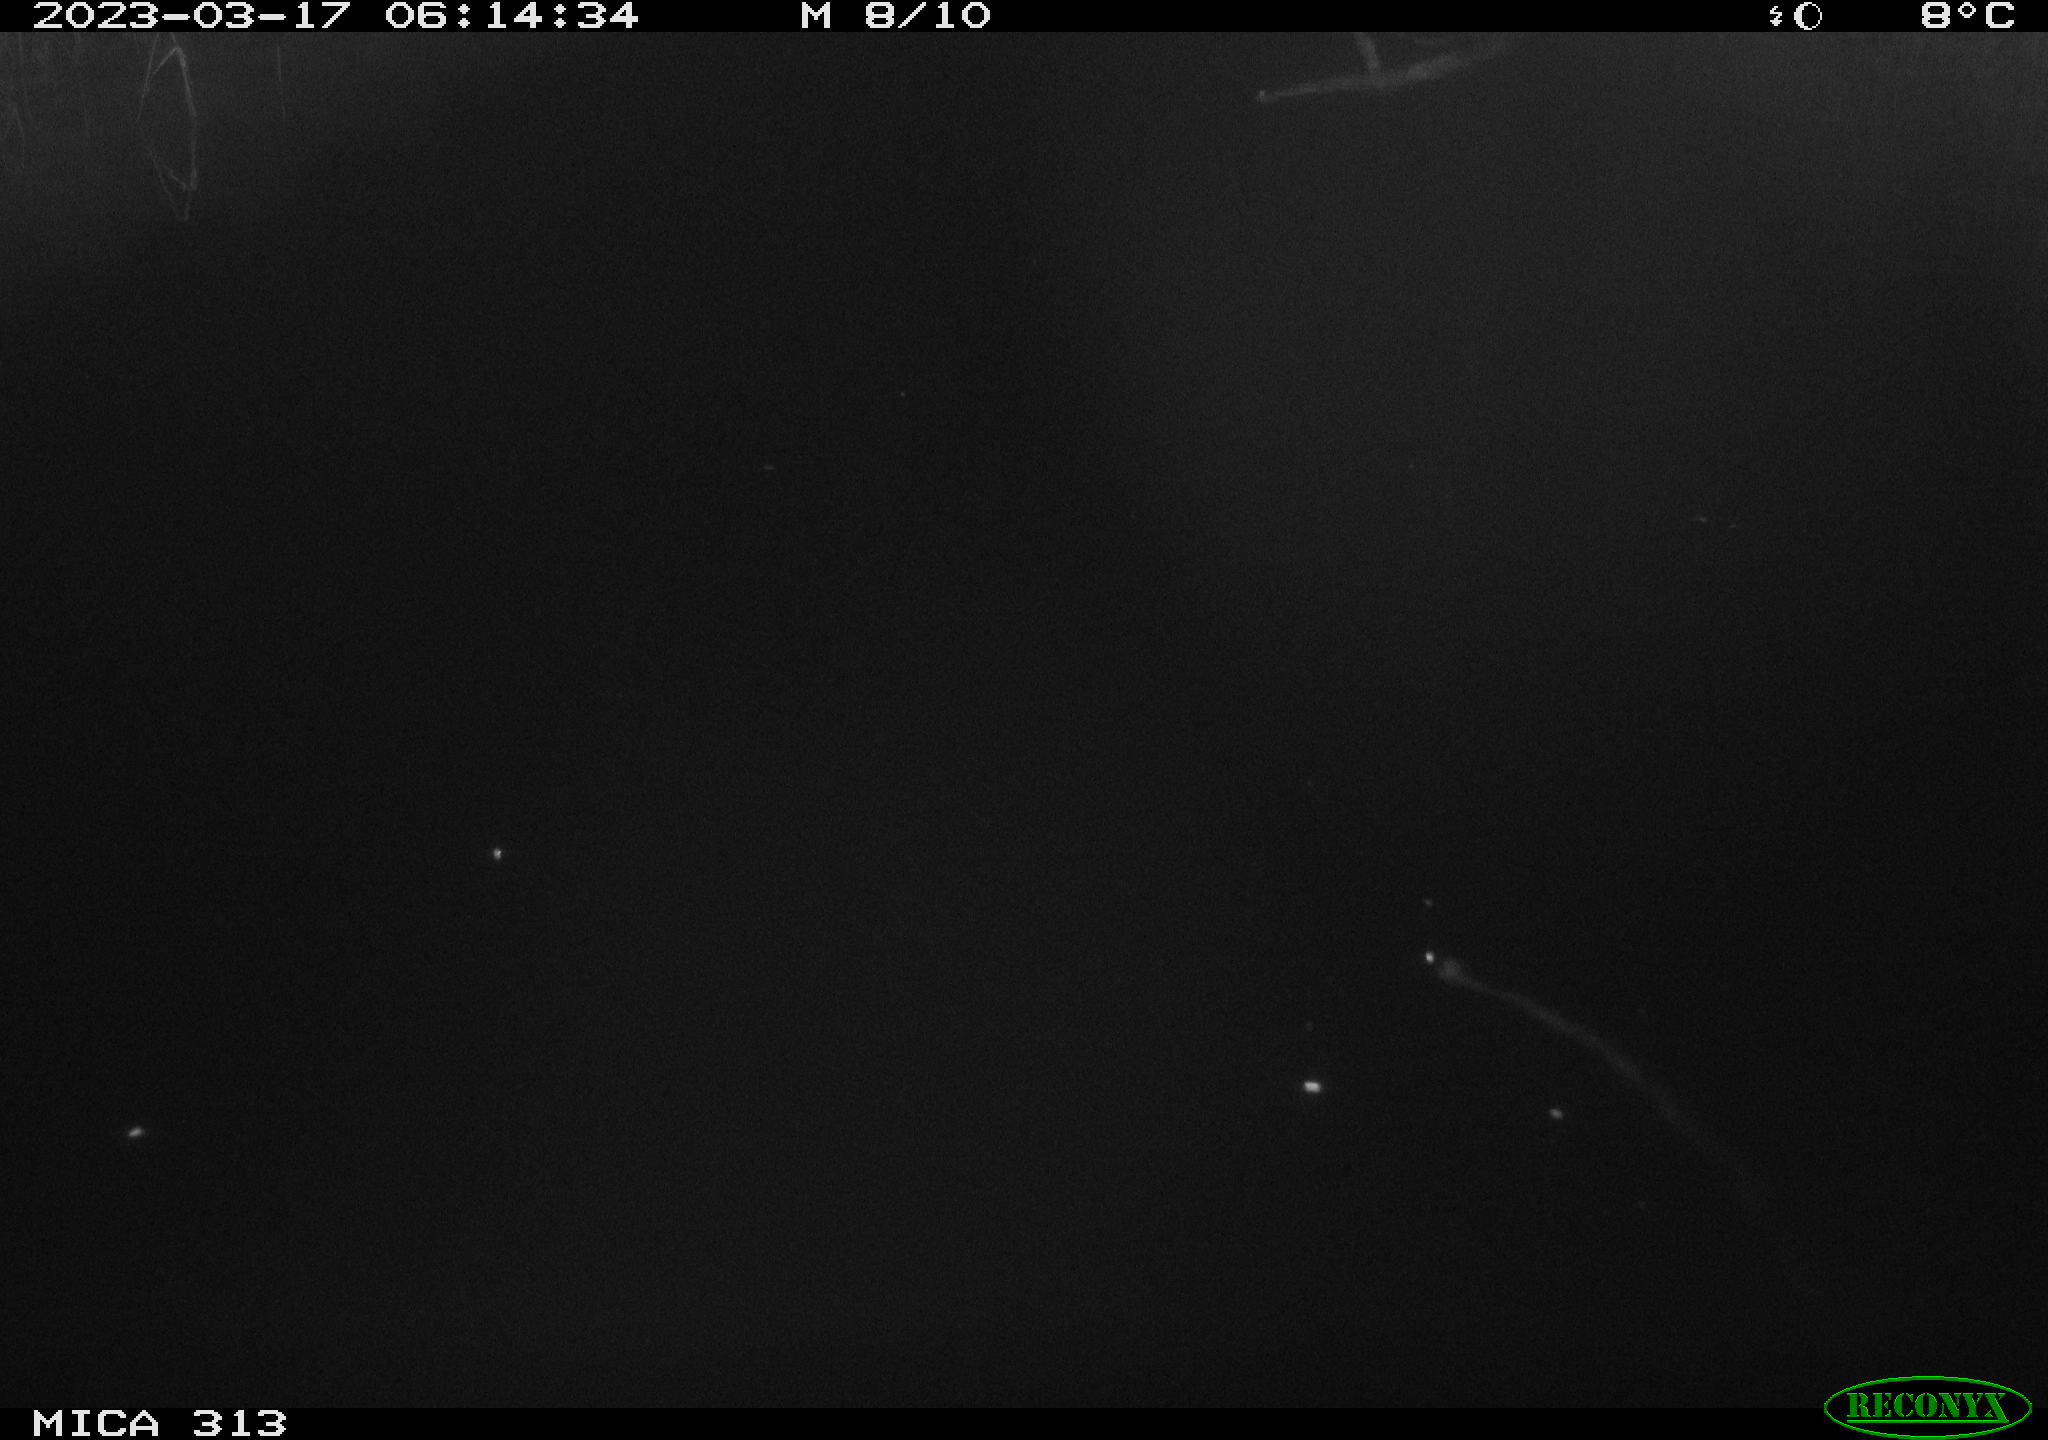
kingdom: Animalia
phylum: Chordata
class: Aves
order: Anseriformes
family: Anatidae
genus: Anas
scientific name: Anas
